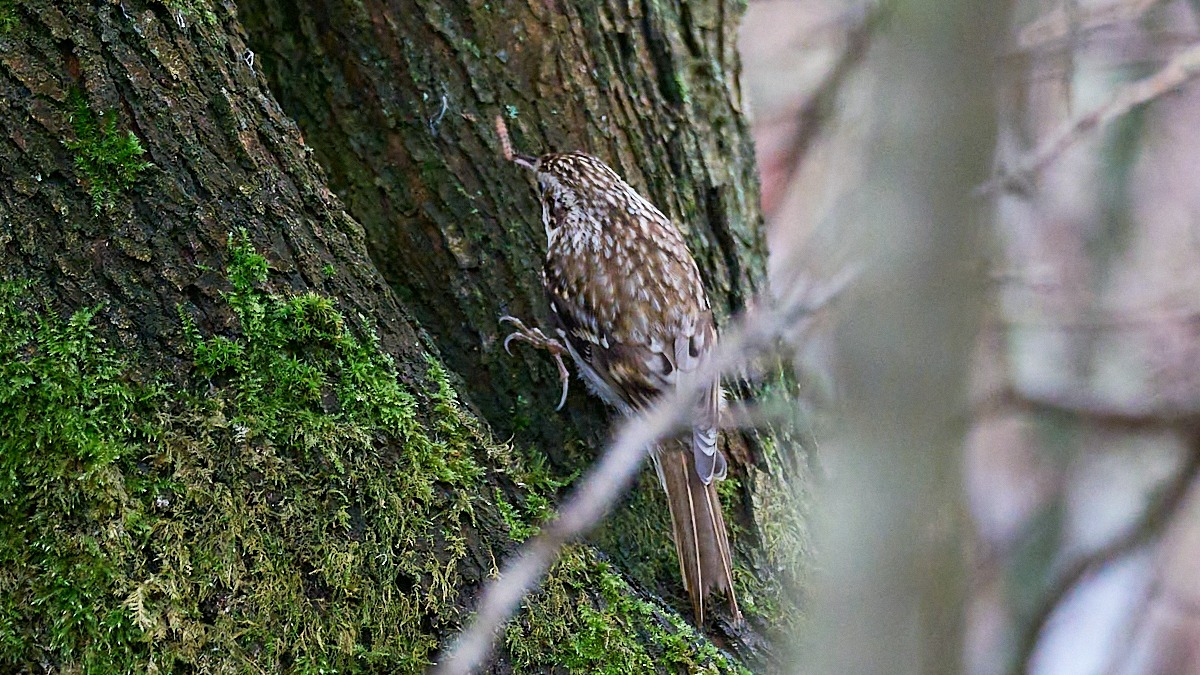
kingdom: Animalia
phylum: Chordata
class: Aves
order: Passeriformes
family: Certhiidae
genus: Certhia
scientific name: Certhia familiaris
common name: Træløber
